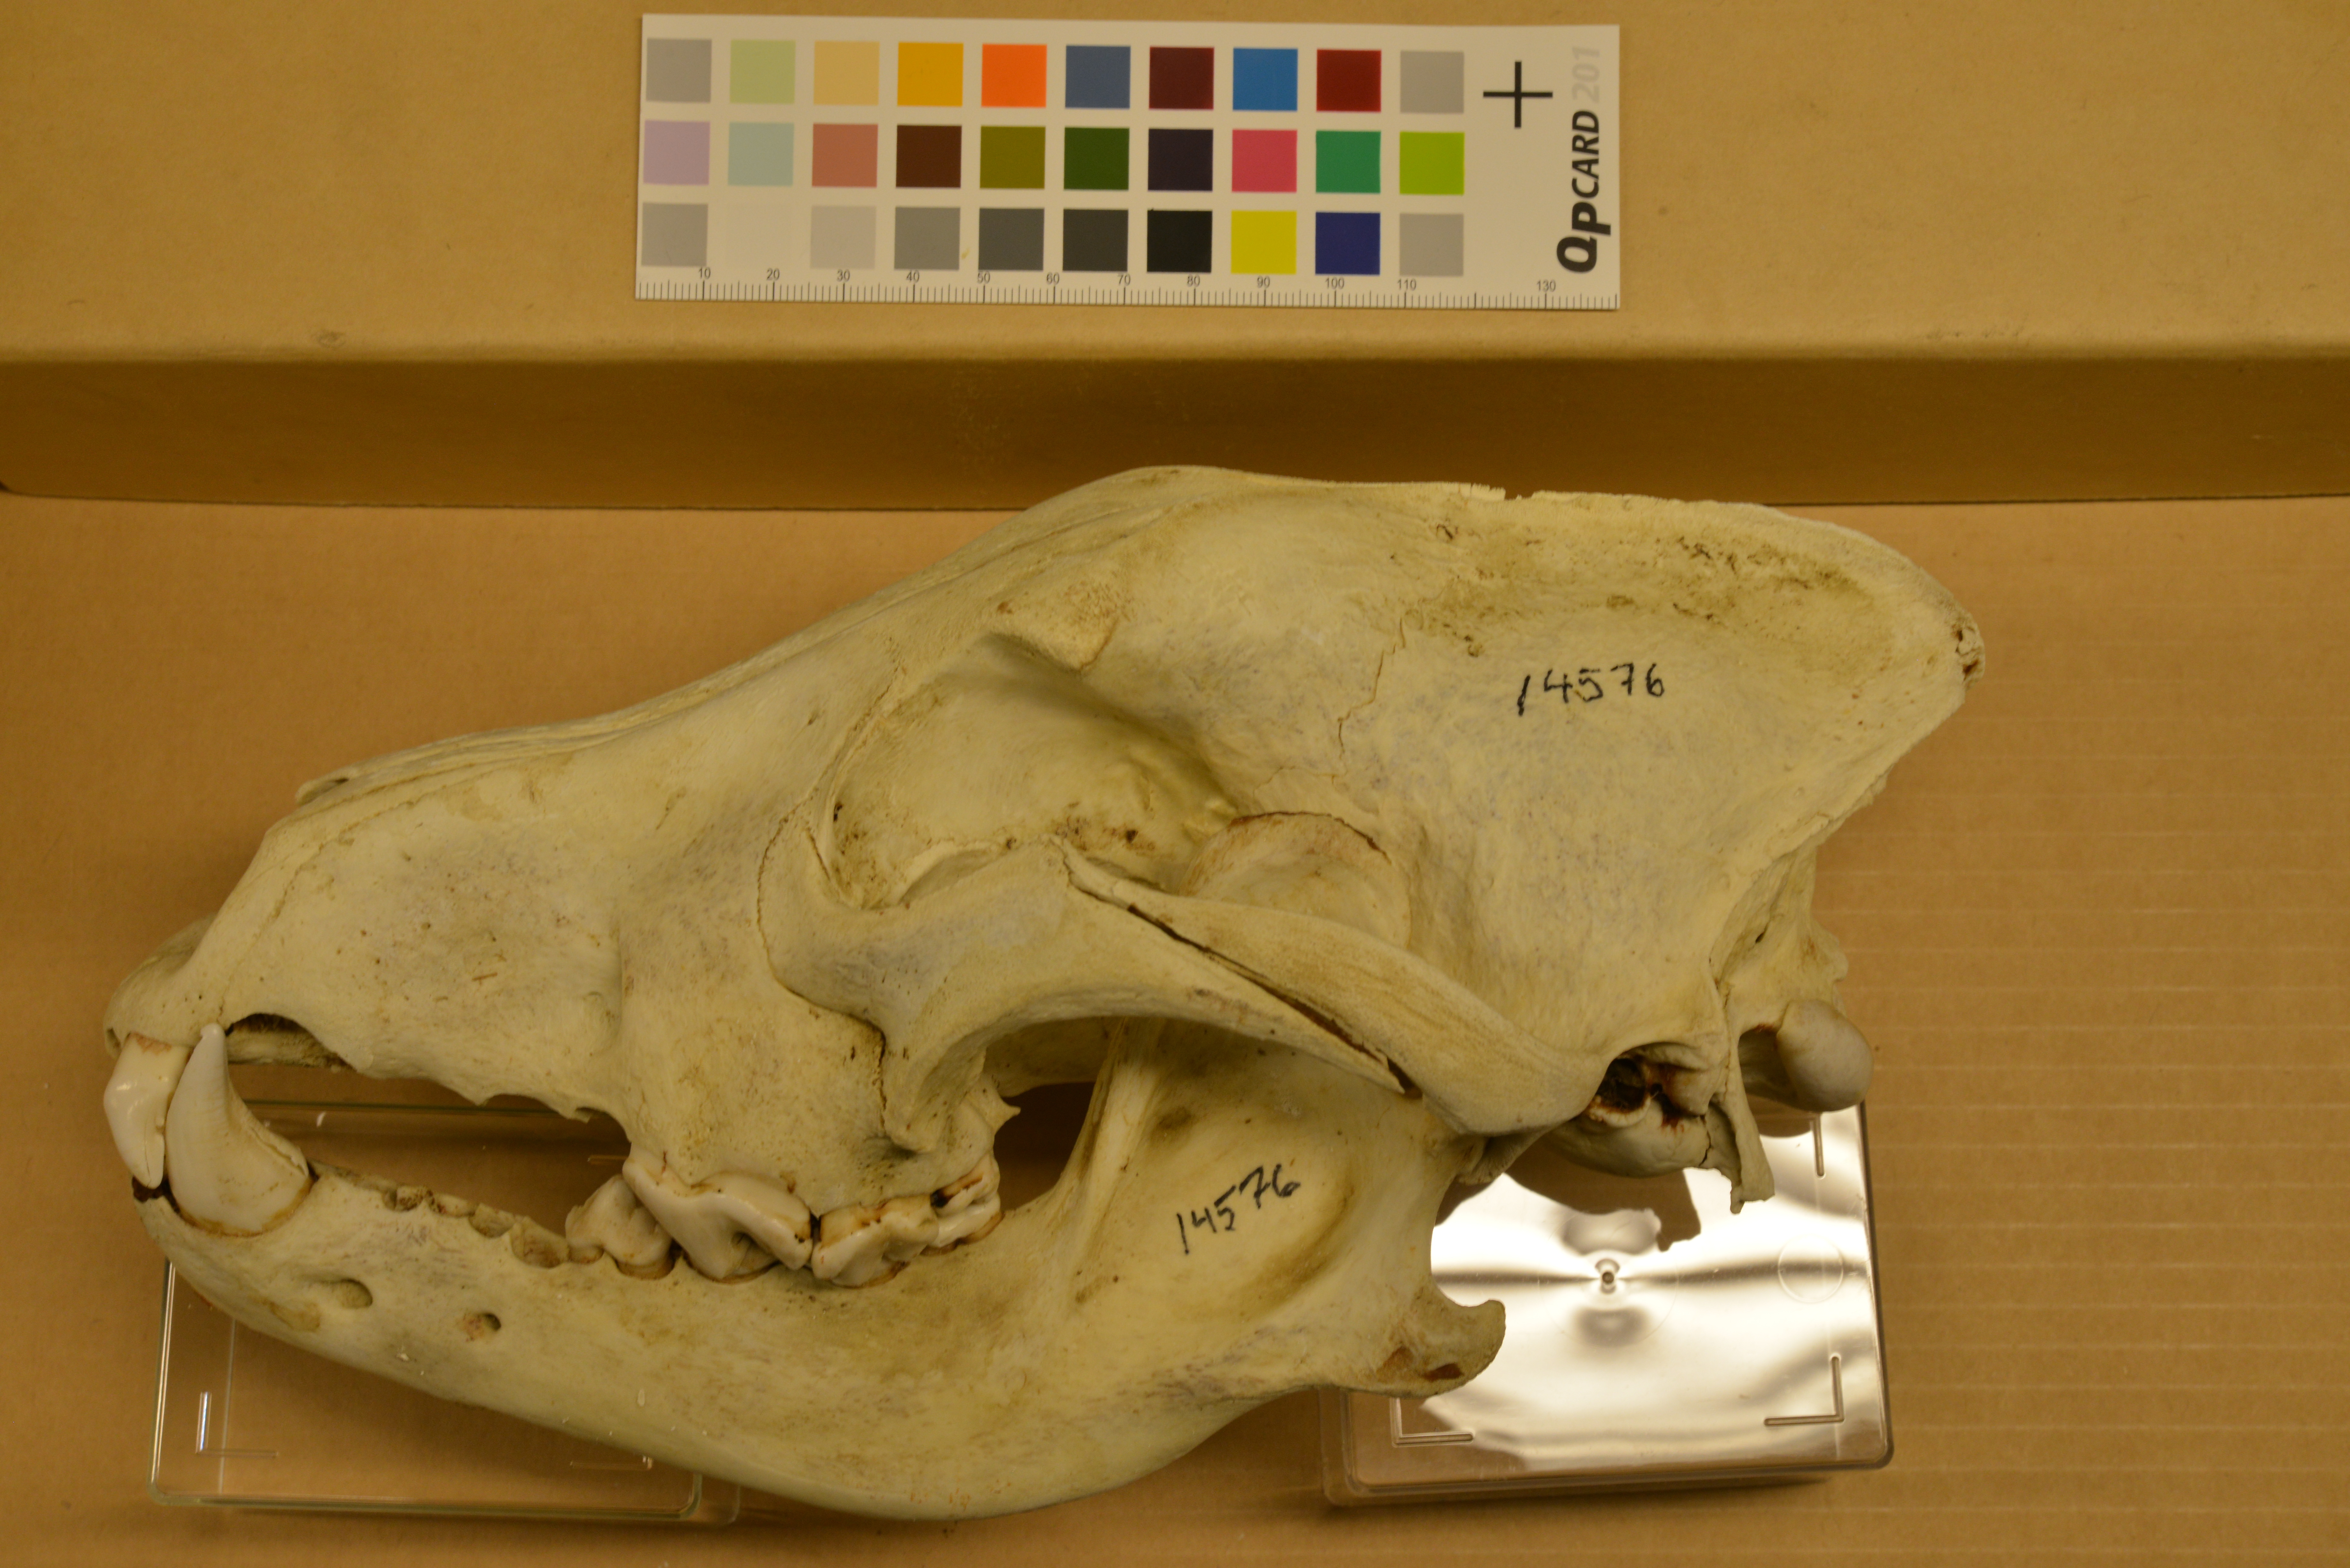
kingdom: Animalia
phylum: Chordata
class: Mammalia
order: Carnivora
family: Canidae
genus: Canis
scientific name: Canis lupus
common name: Gray wolf
